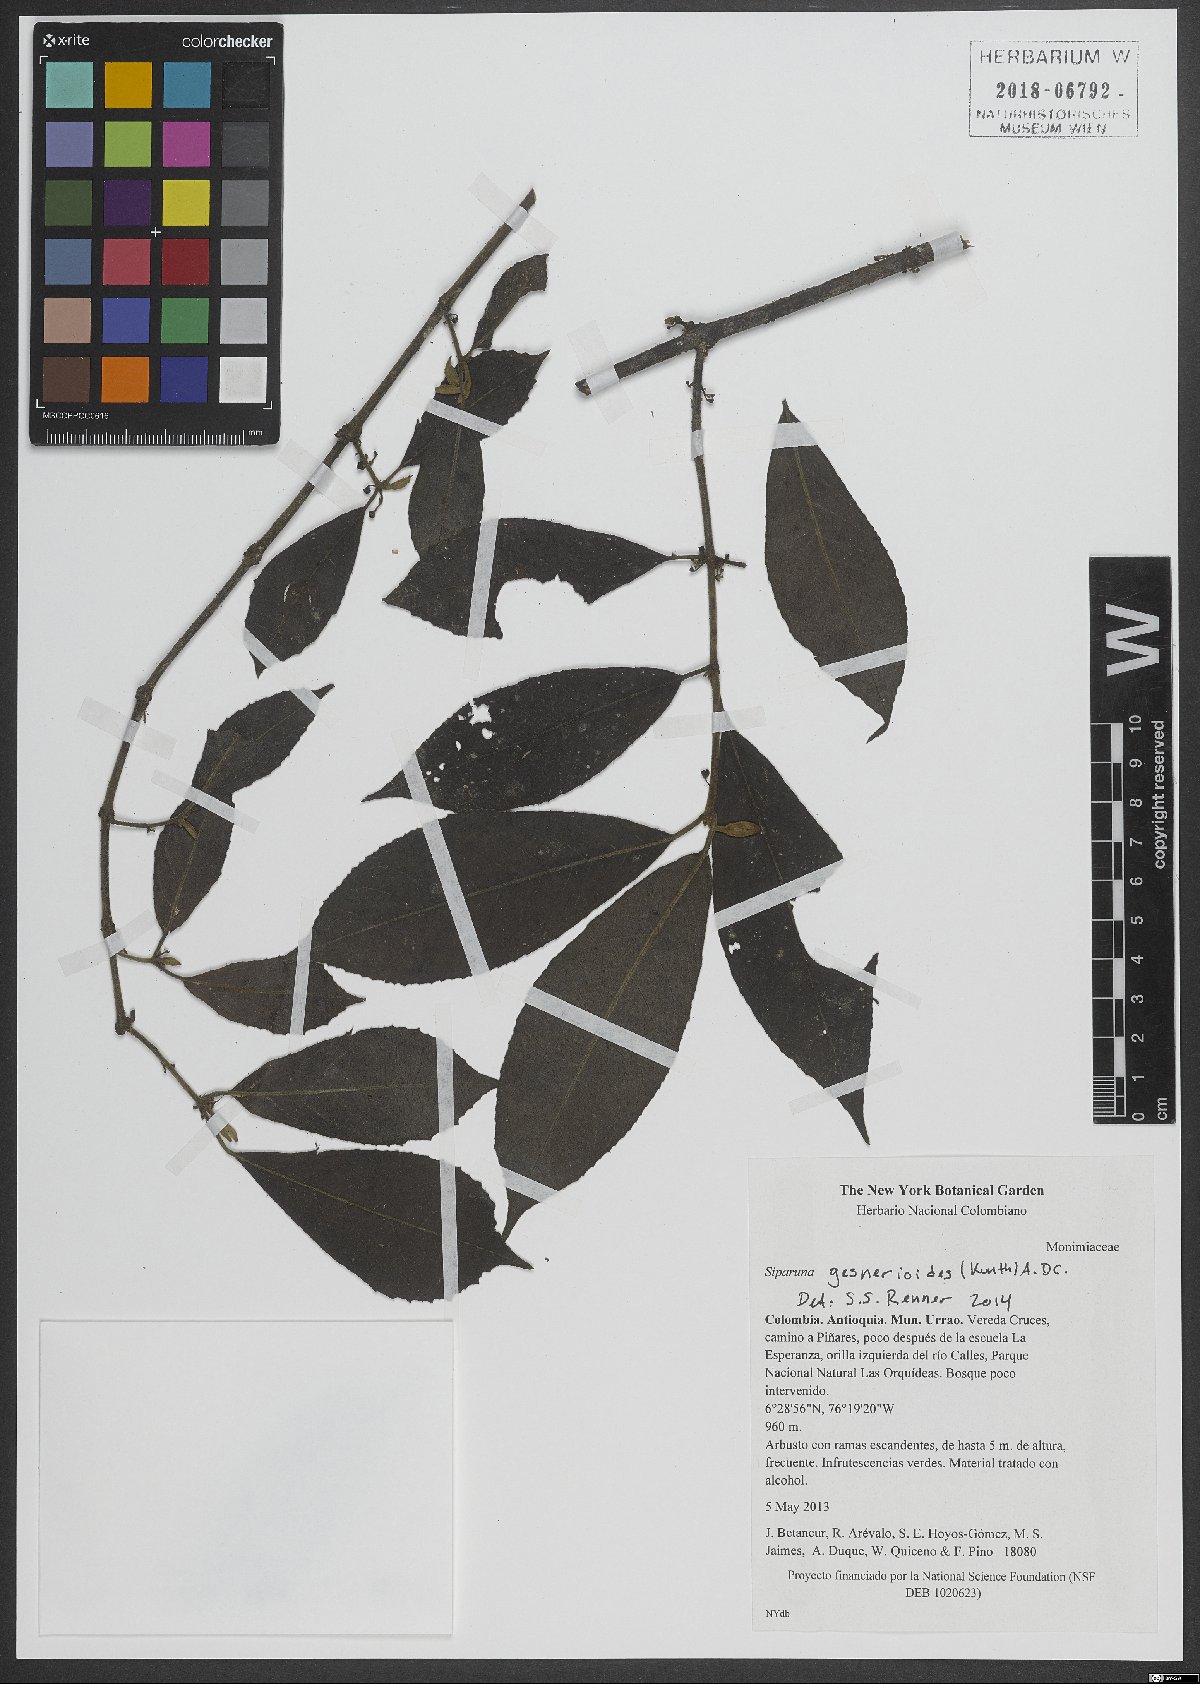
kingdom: Plantae
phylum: Tracheophyta
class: Magnoliopsida
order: Laurales
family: Siparunaceae
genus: Siparuna
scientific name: Siparuna gesnerioides
